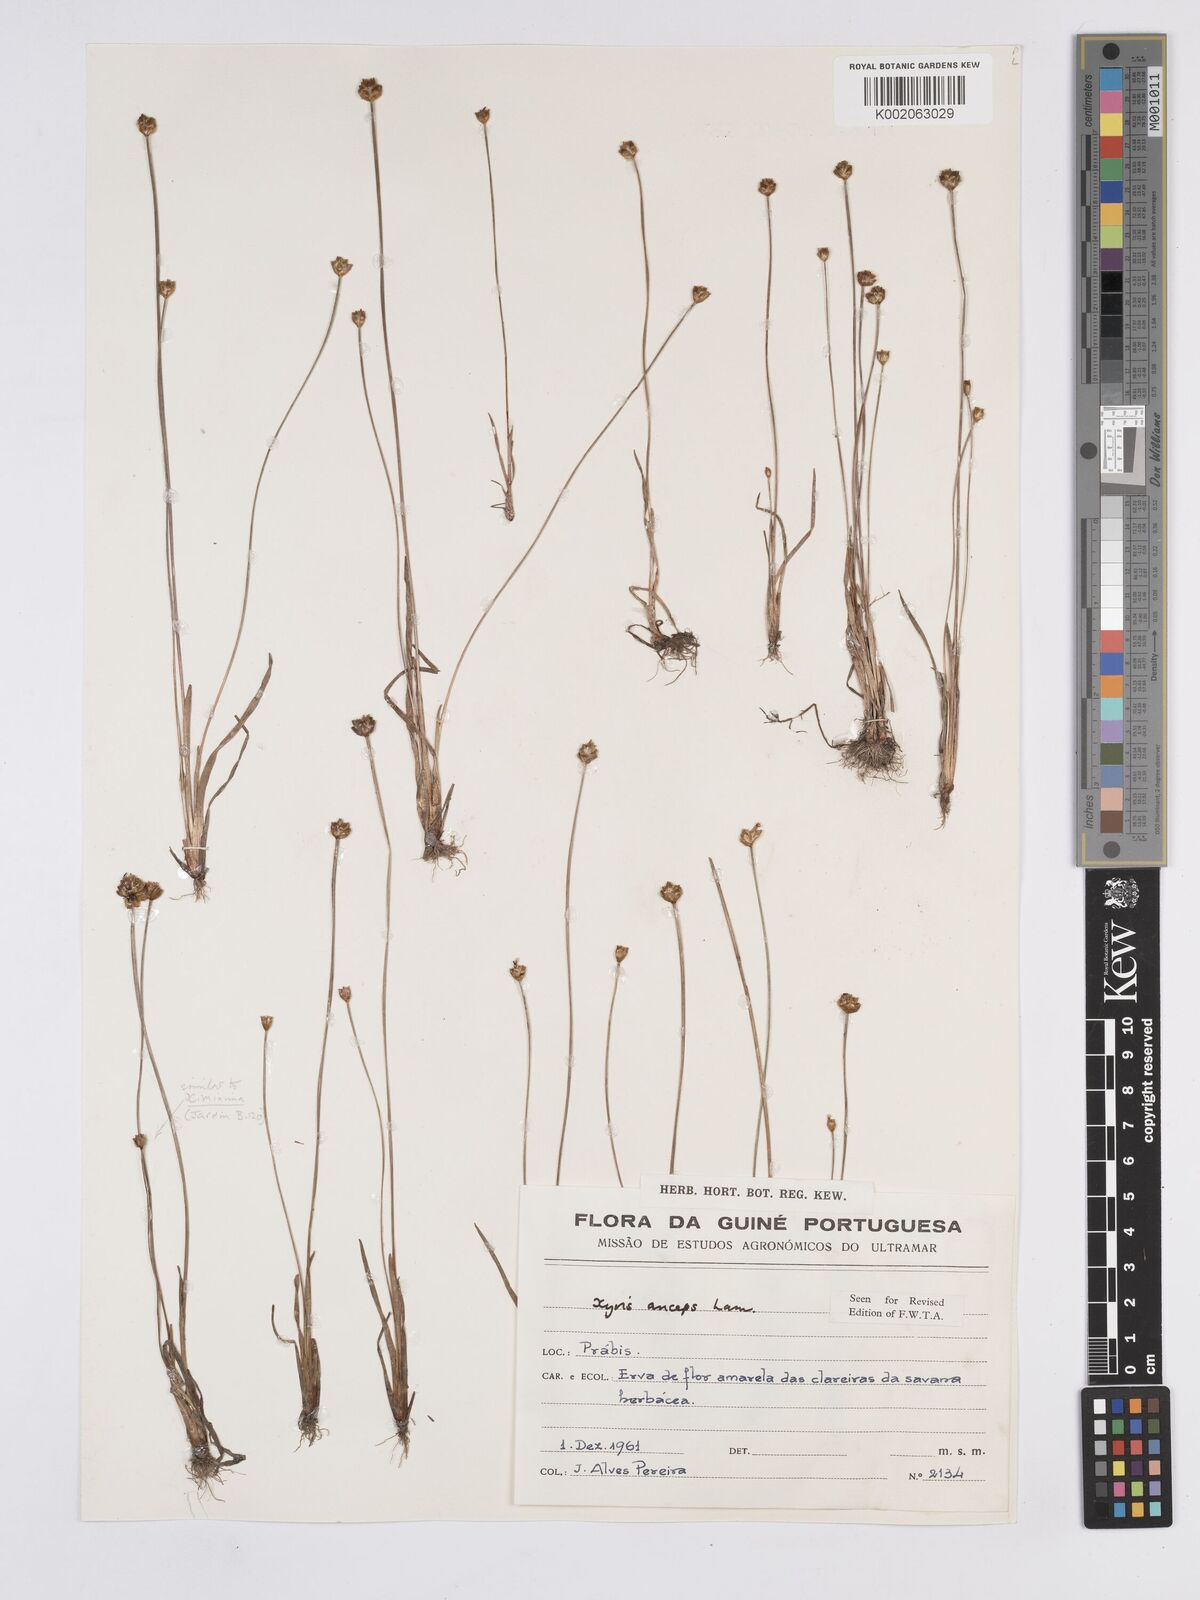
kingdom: Plantae
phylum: Tracheophyta
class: Liliopsida
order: Poales
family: Xyridaceae
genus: Xyris
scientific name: Xyris anceps
